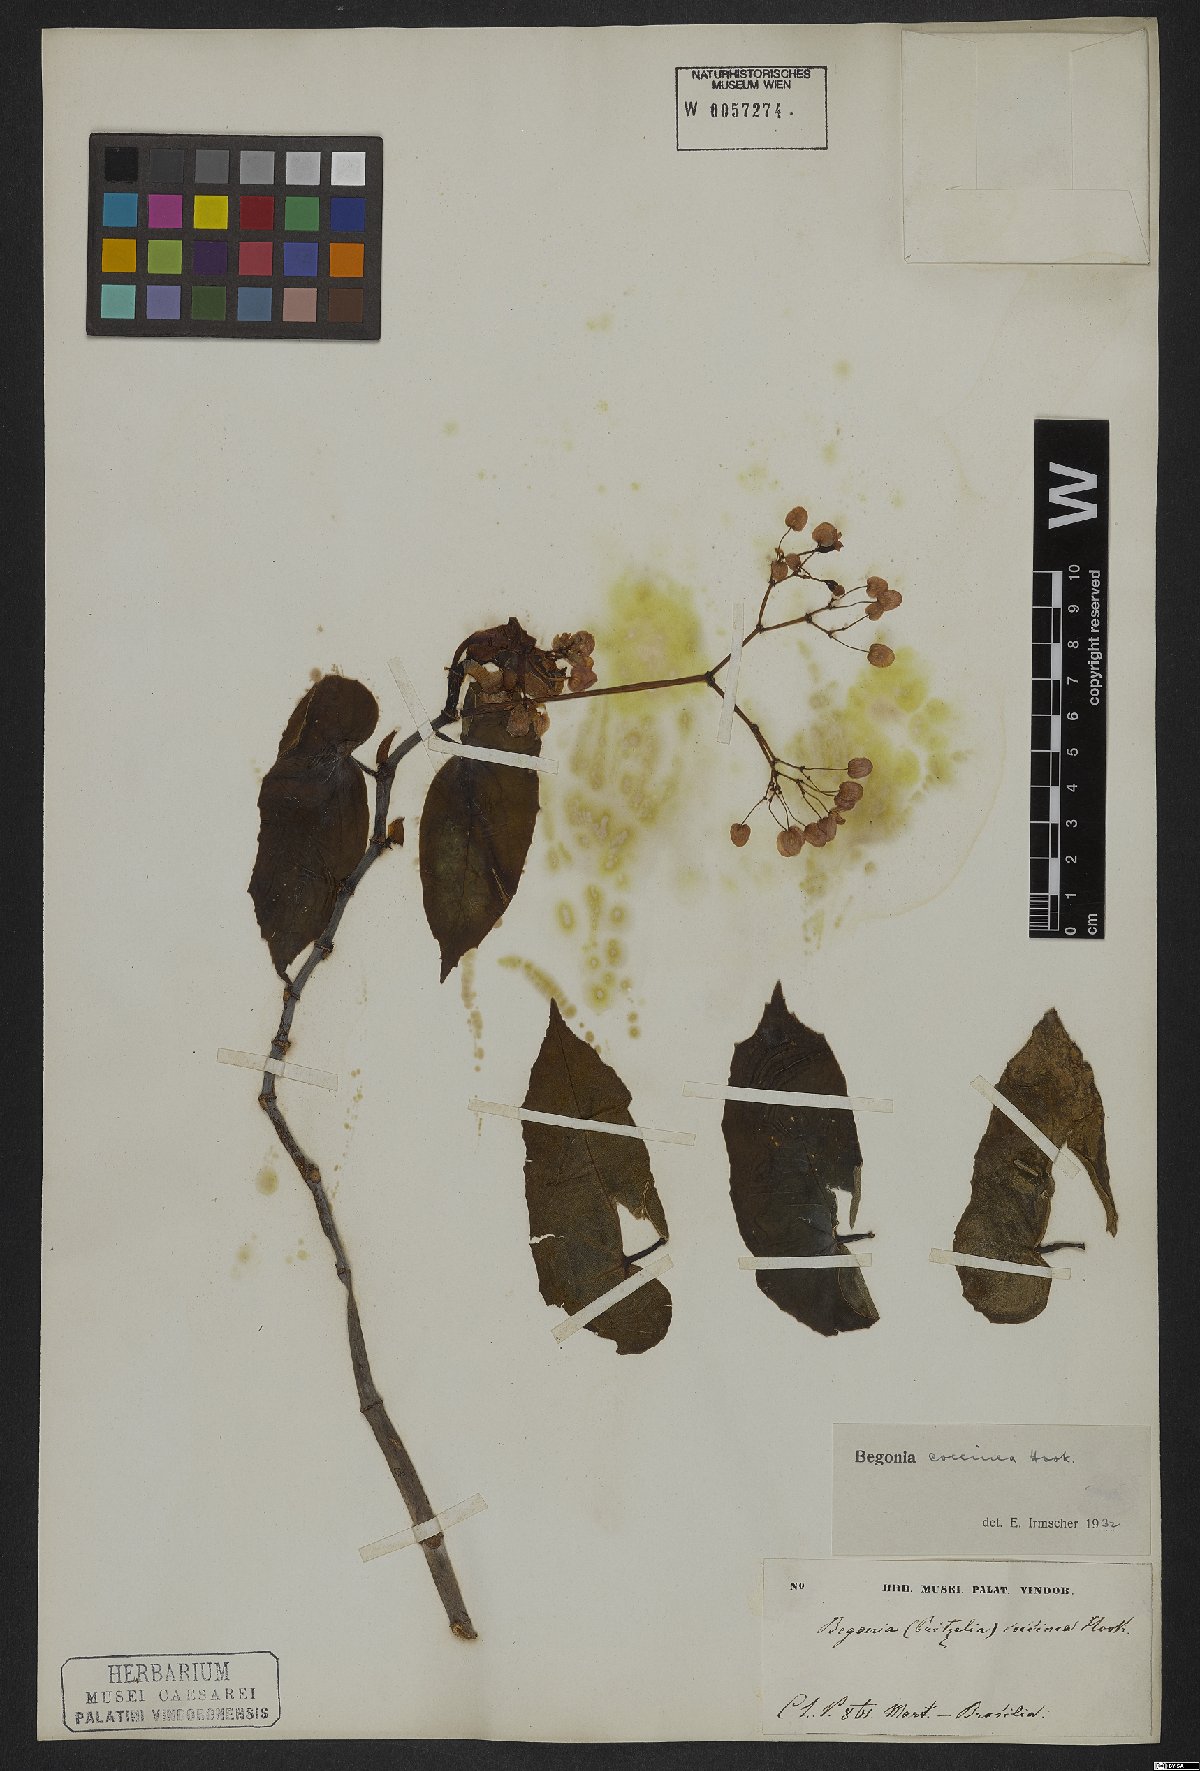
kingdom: Plantae
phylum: Tracheophyta
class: Magnoliopsida
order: Cucurbitales
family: Begoniaceae
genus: Begonia
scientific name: Begonia coccinea
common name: Angel-wing begonia
